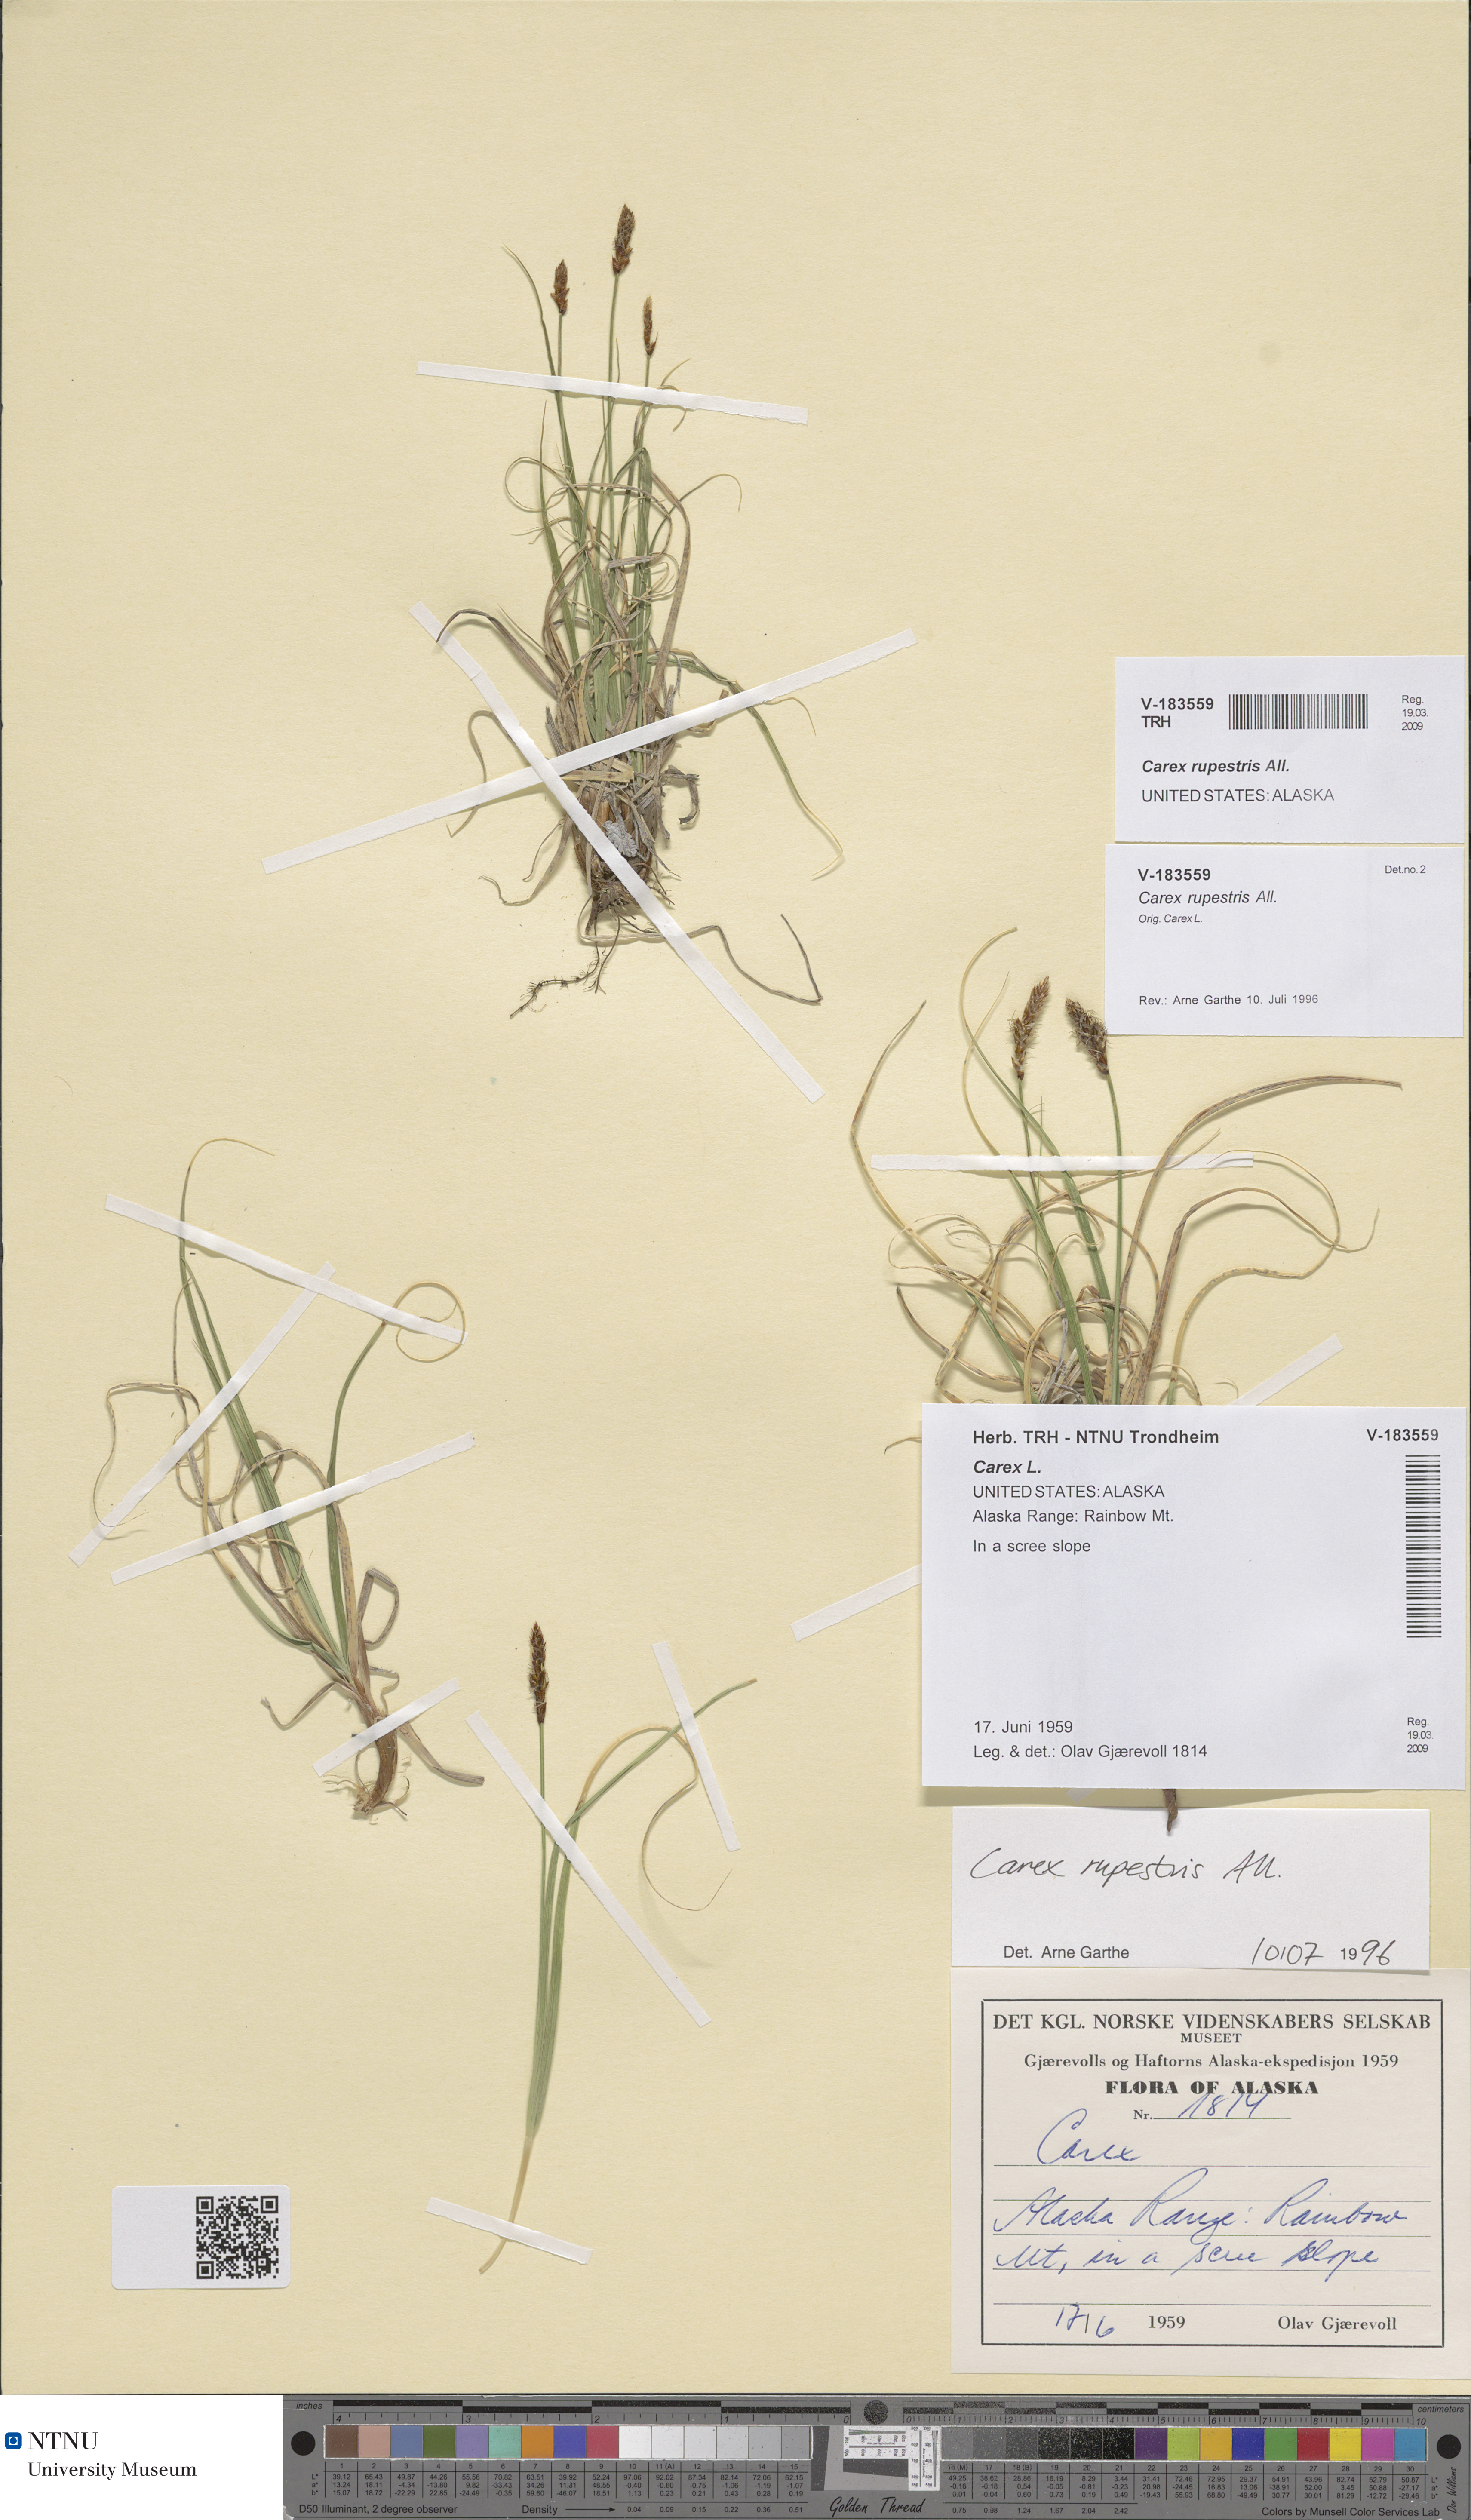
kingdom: Plantae
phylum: Tracheophyta
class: Liliopsida
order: Poales
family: Cyperaceae
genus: Carex
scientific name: Carex rupestris
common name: Rock sedge
